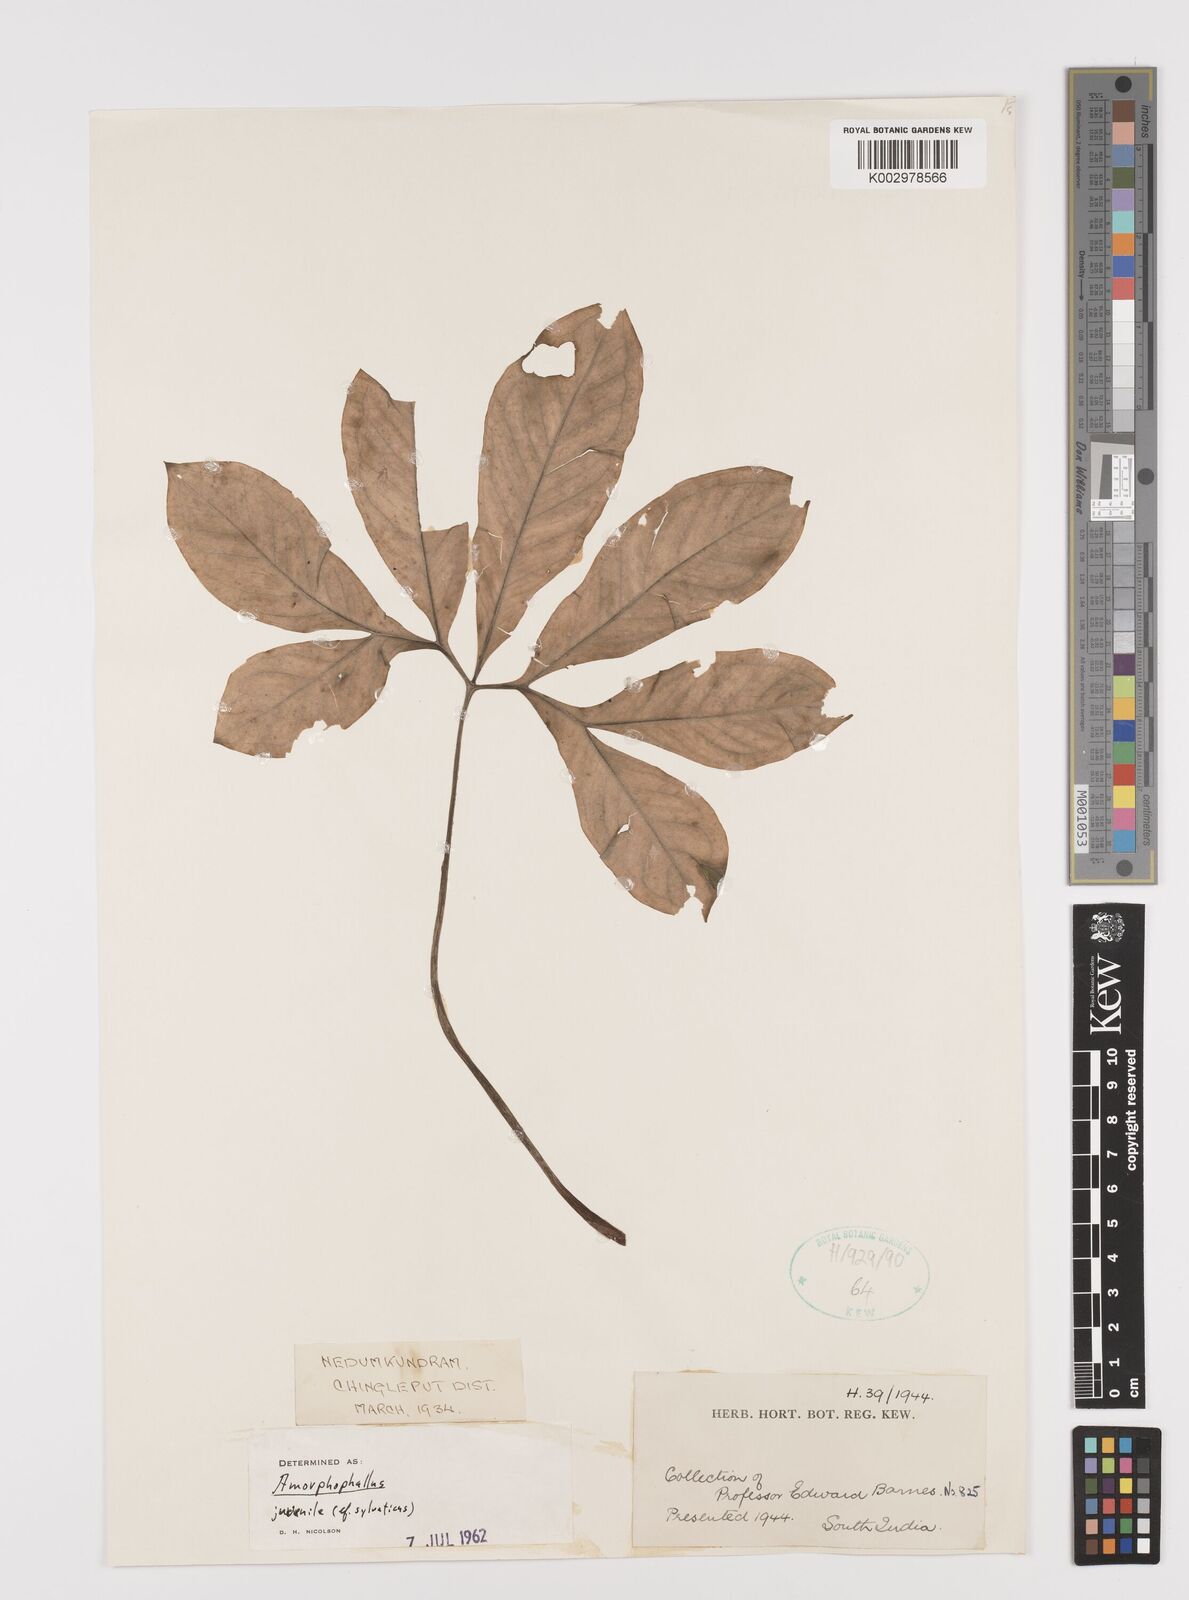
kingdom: Plantae
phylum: Tracheophyta
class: Liliopsida
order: Alismatales
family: Araceae
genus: Amorphophallus
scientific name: Amorphophallus
